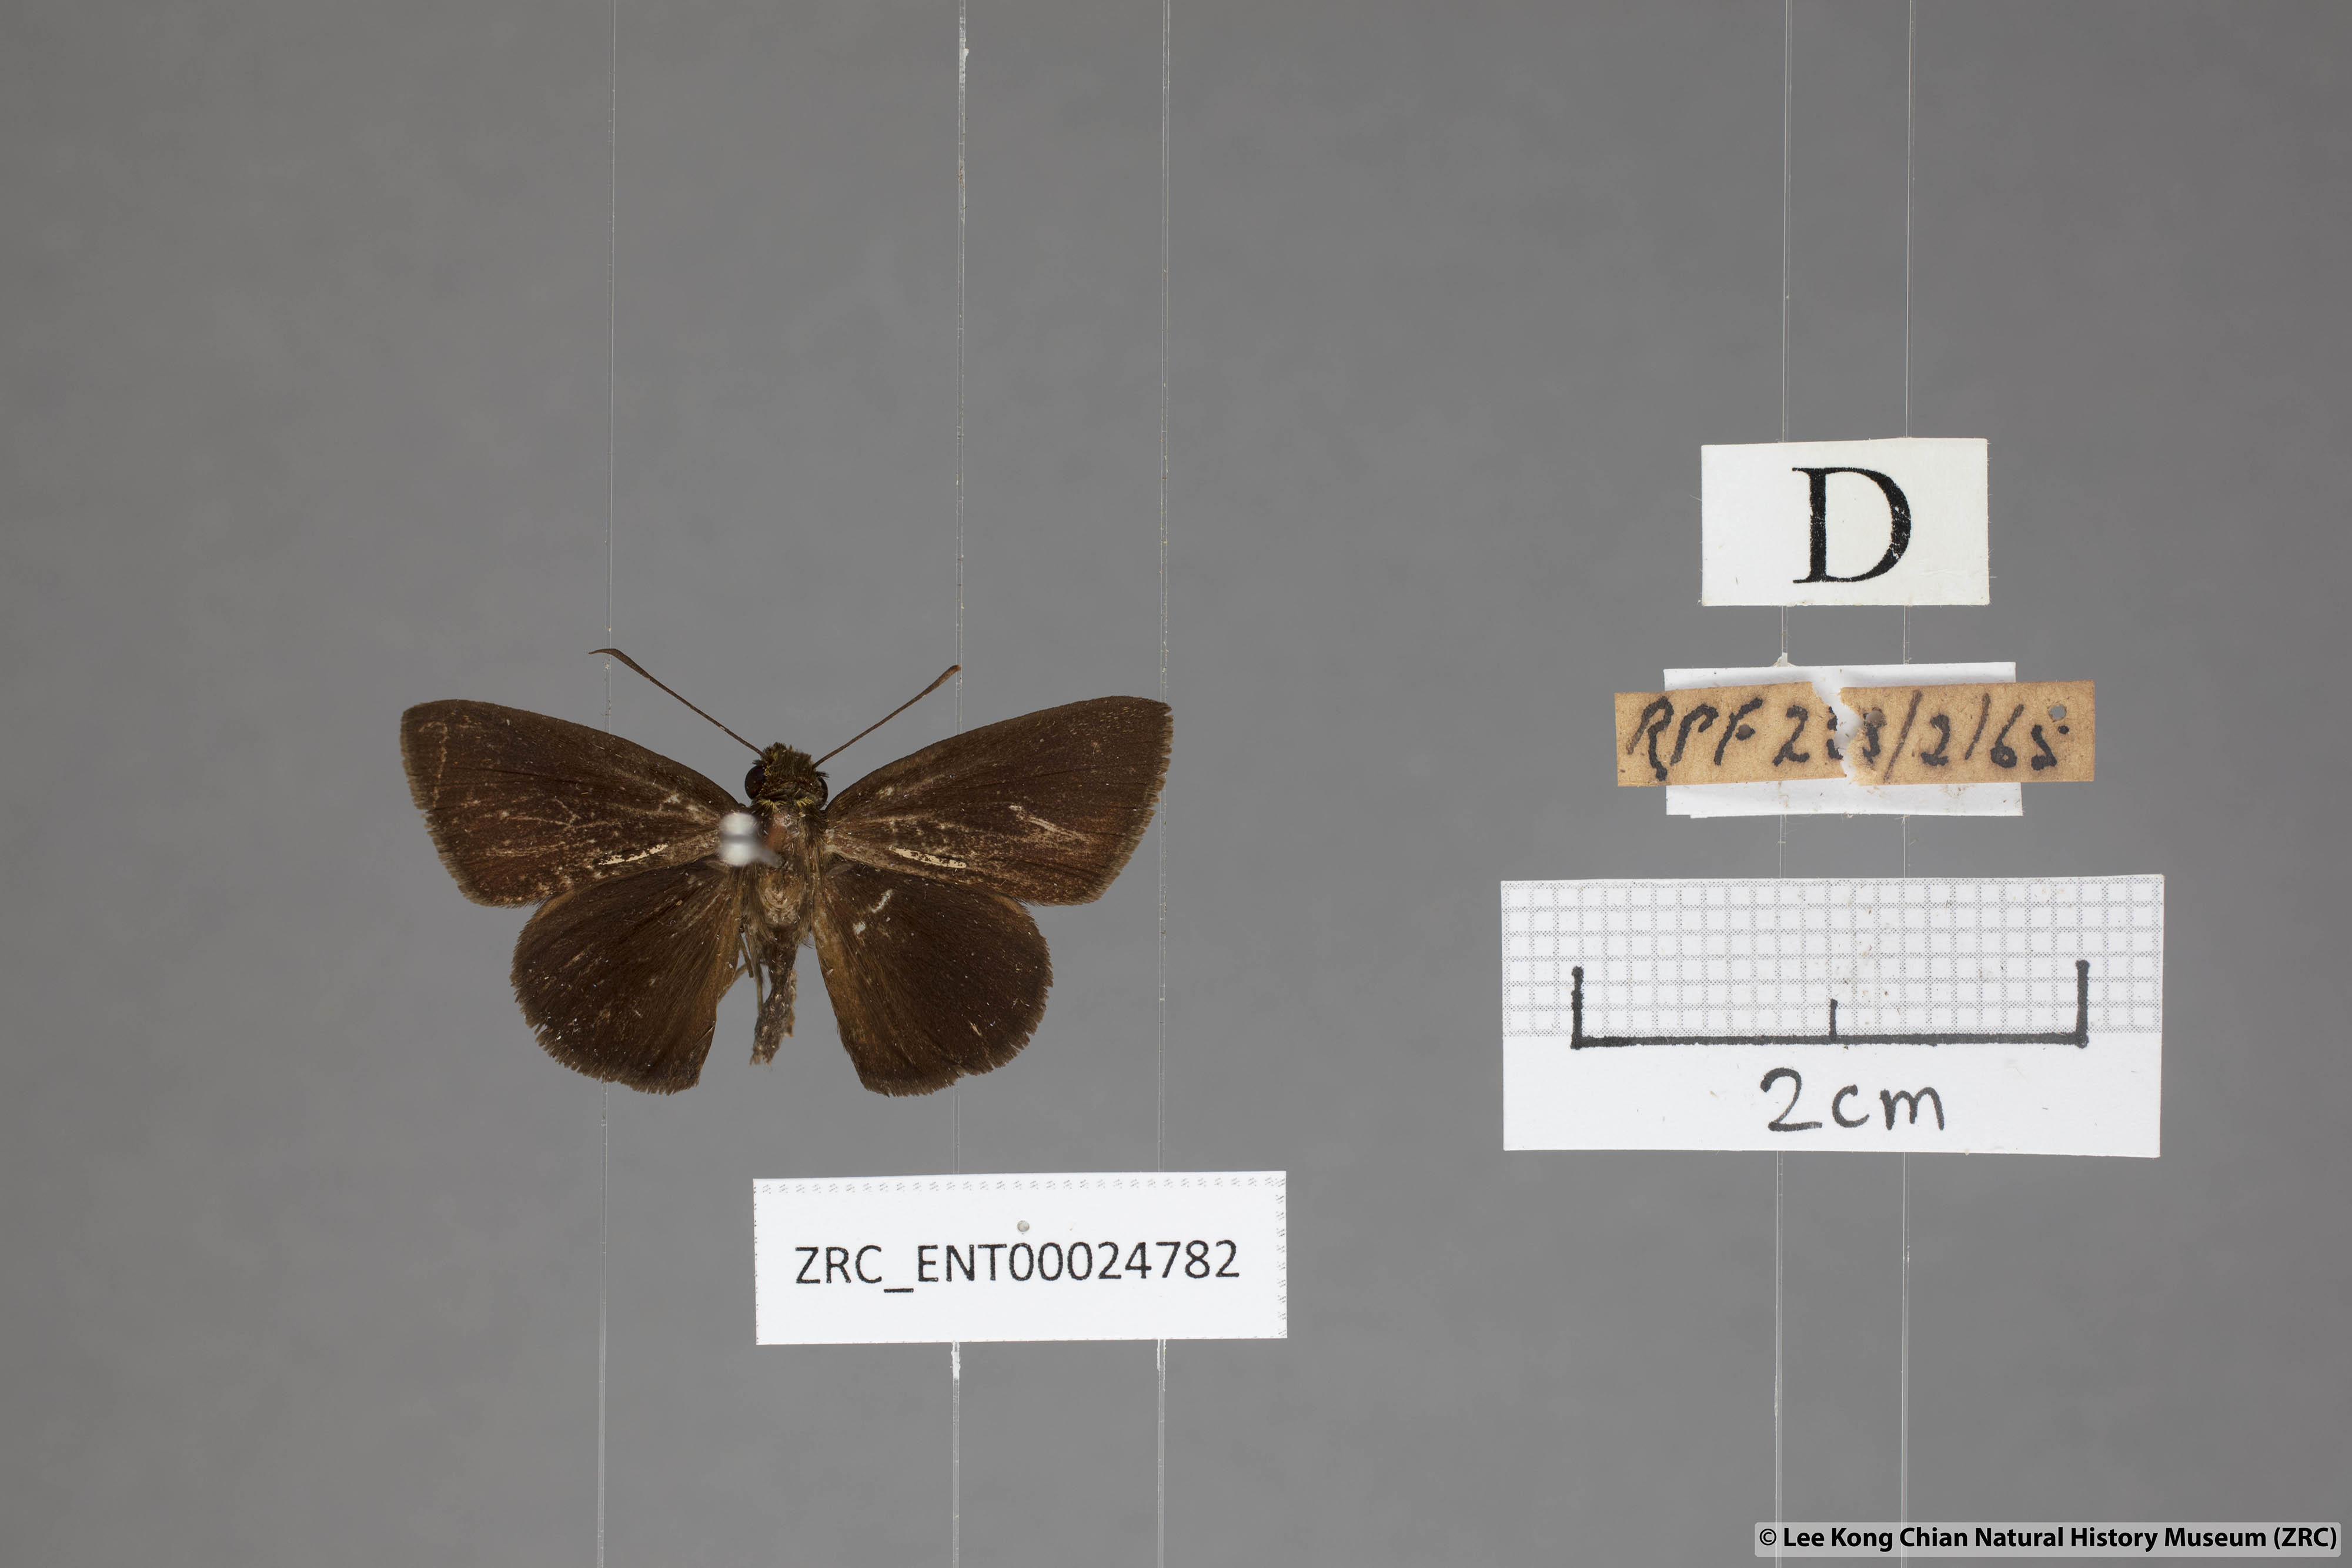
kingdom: Animalia
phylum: Arthropoda
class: Insecta
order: Lepidoptera
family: Hesperiidae
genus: Iambrix
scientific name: Iambrix
